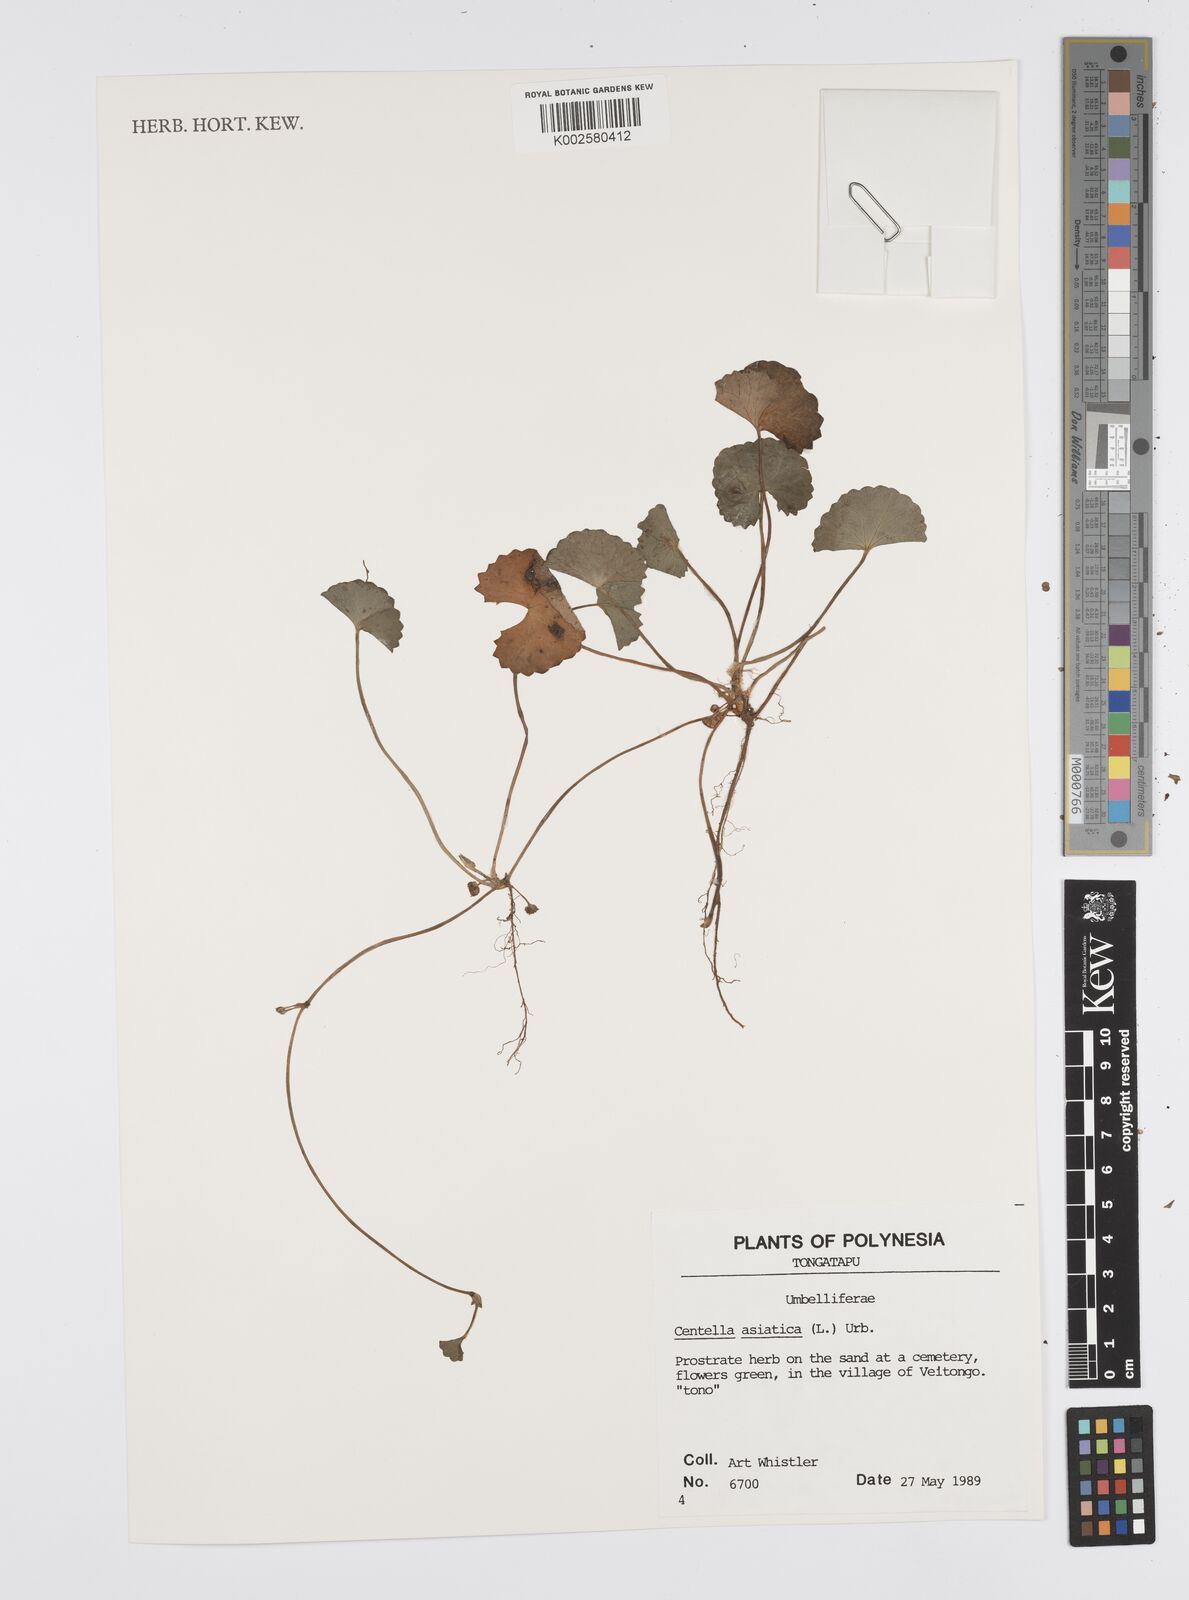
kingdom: Plantae
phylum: Tracheophyta
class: Magnoliopsida
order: Apiales
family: Apiaceae
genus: Centella
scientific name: Centella asiatica
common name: Spadeleaf
